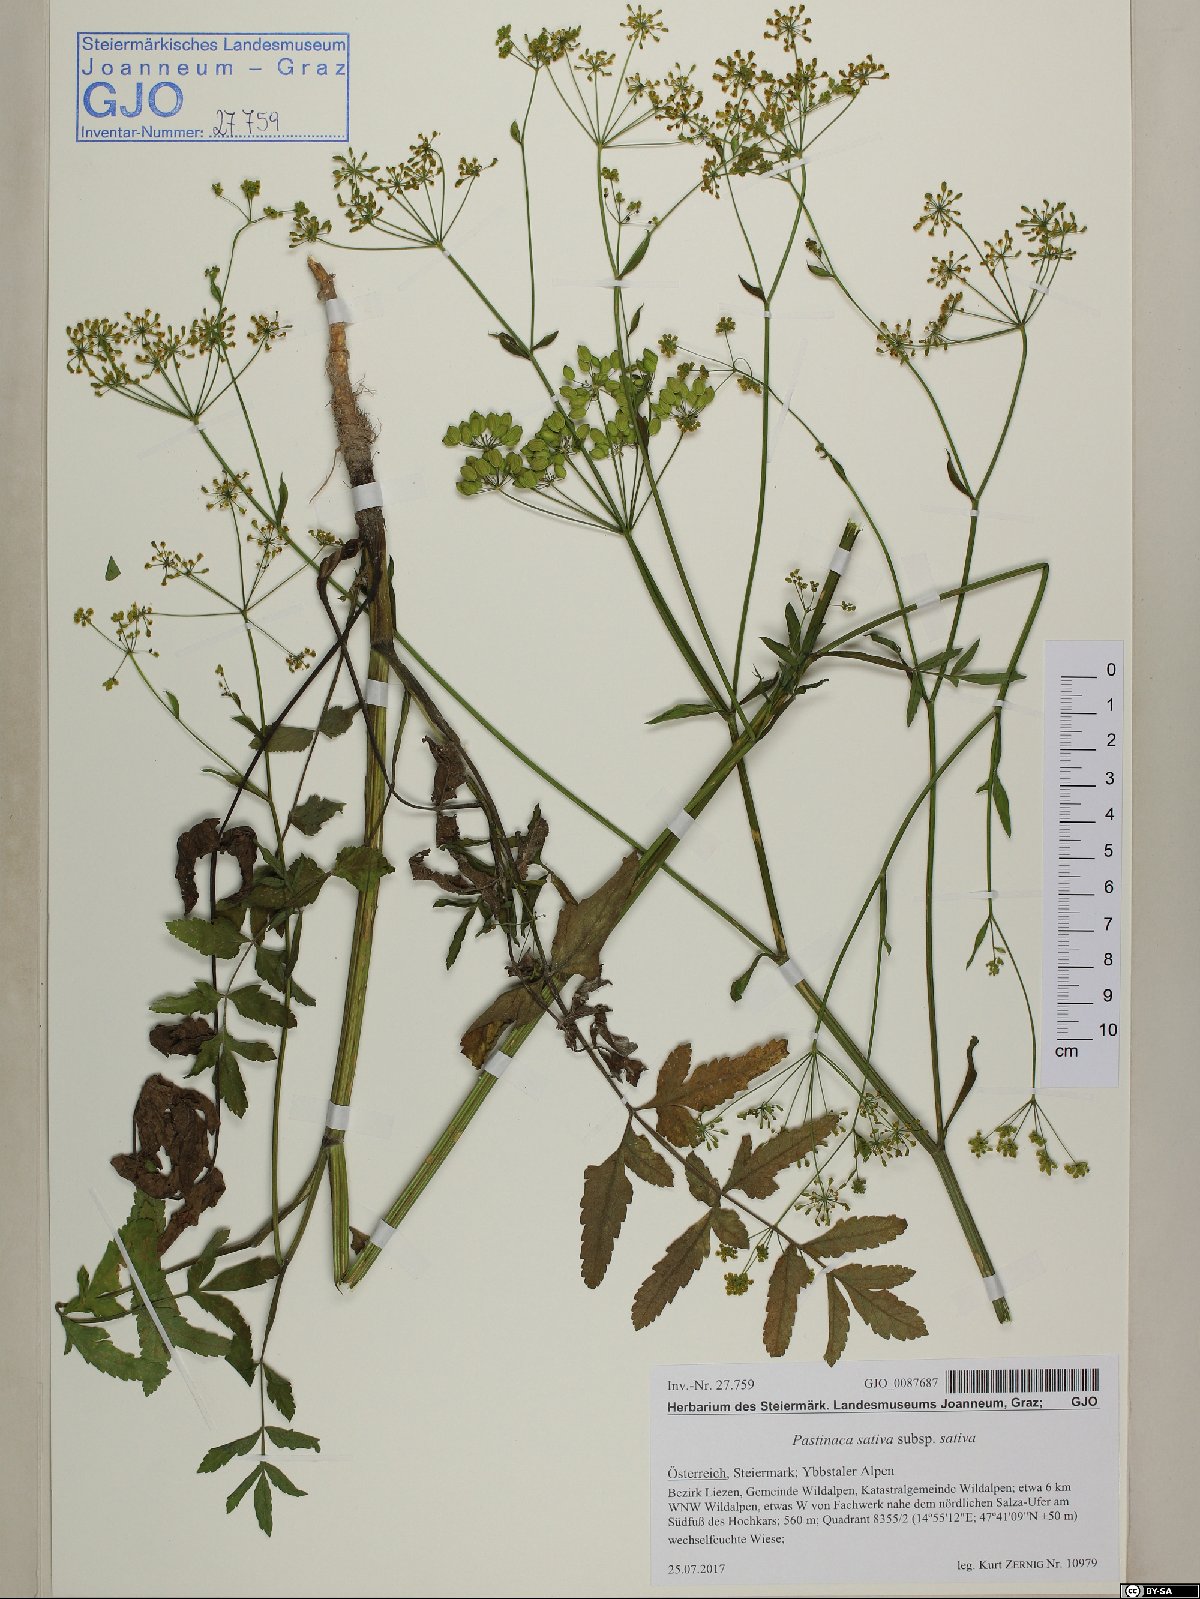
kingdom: Plantae
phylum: Tracheophyta
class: Magnoliopsida
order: Apiales
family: Apiaceae
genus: Pastinaca
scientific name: Pastinaca sativa
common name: Wild parsnip
